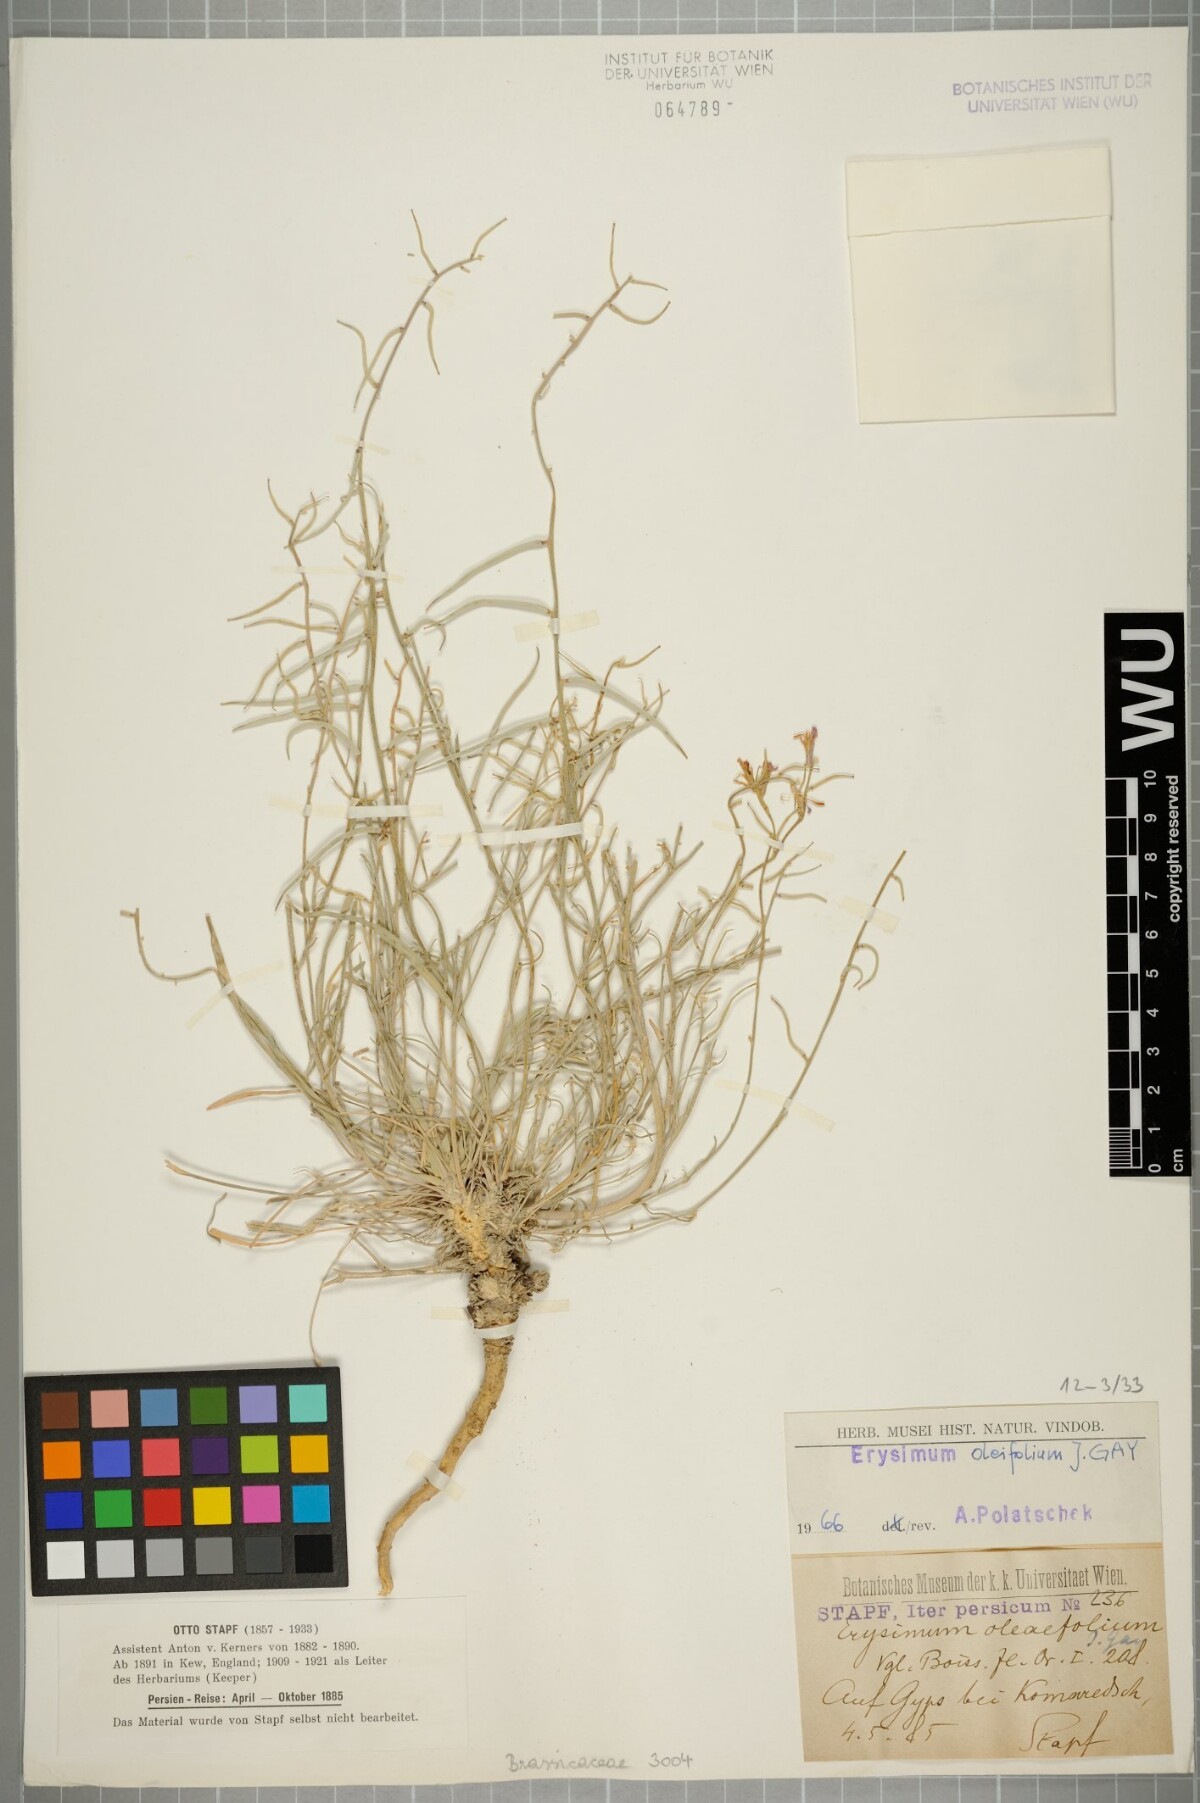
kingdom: Plantae
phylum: Tracheophyta
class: Magnoliopsida
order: Brassicales
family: Brassicaceae
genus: Erysimum
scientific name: Erysimum oleifolium
